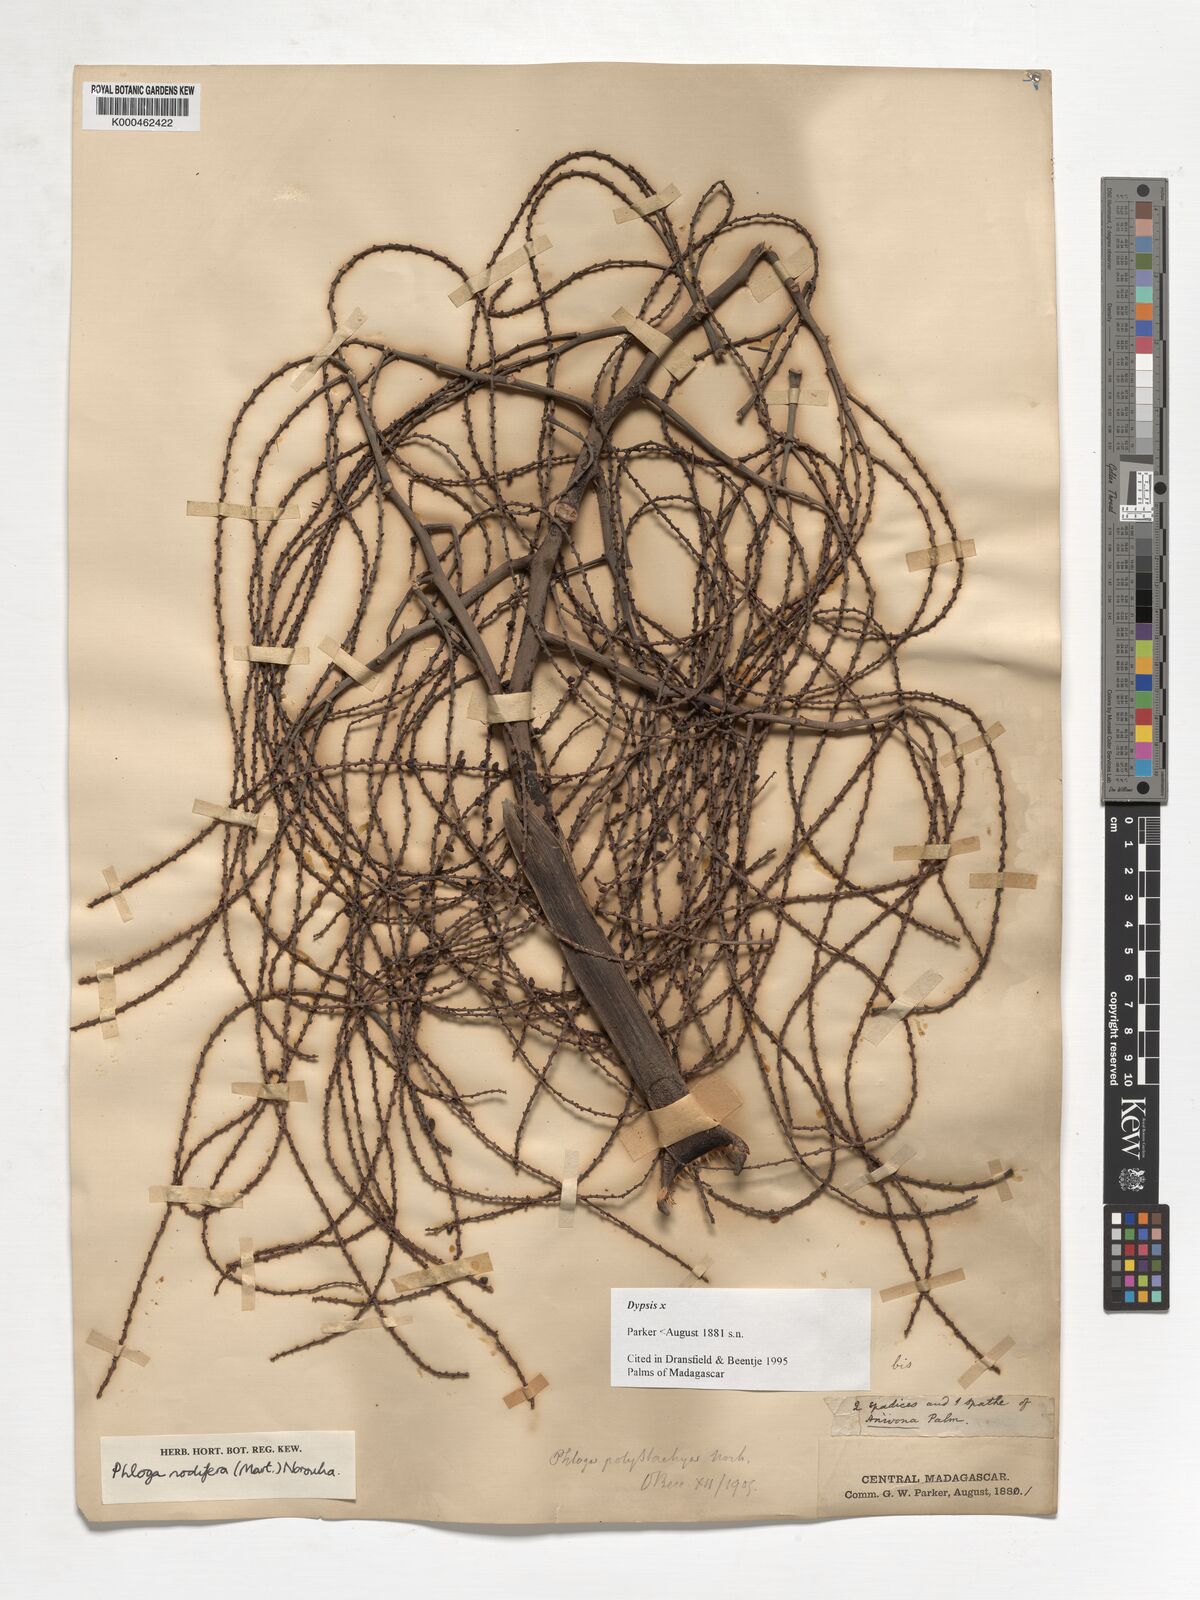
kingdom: Plantae
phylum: Tracheophyta
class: Liliopsida
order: Arecales
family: Arecaceae
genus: Dypsis
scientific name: Dypsis
